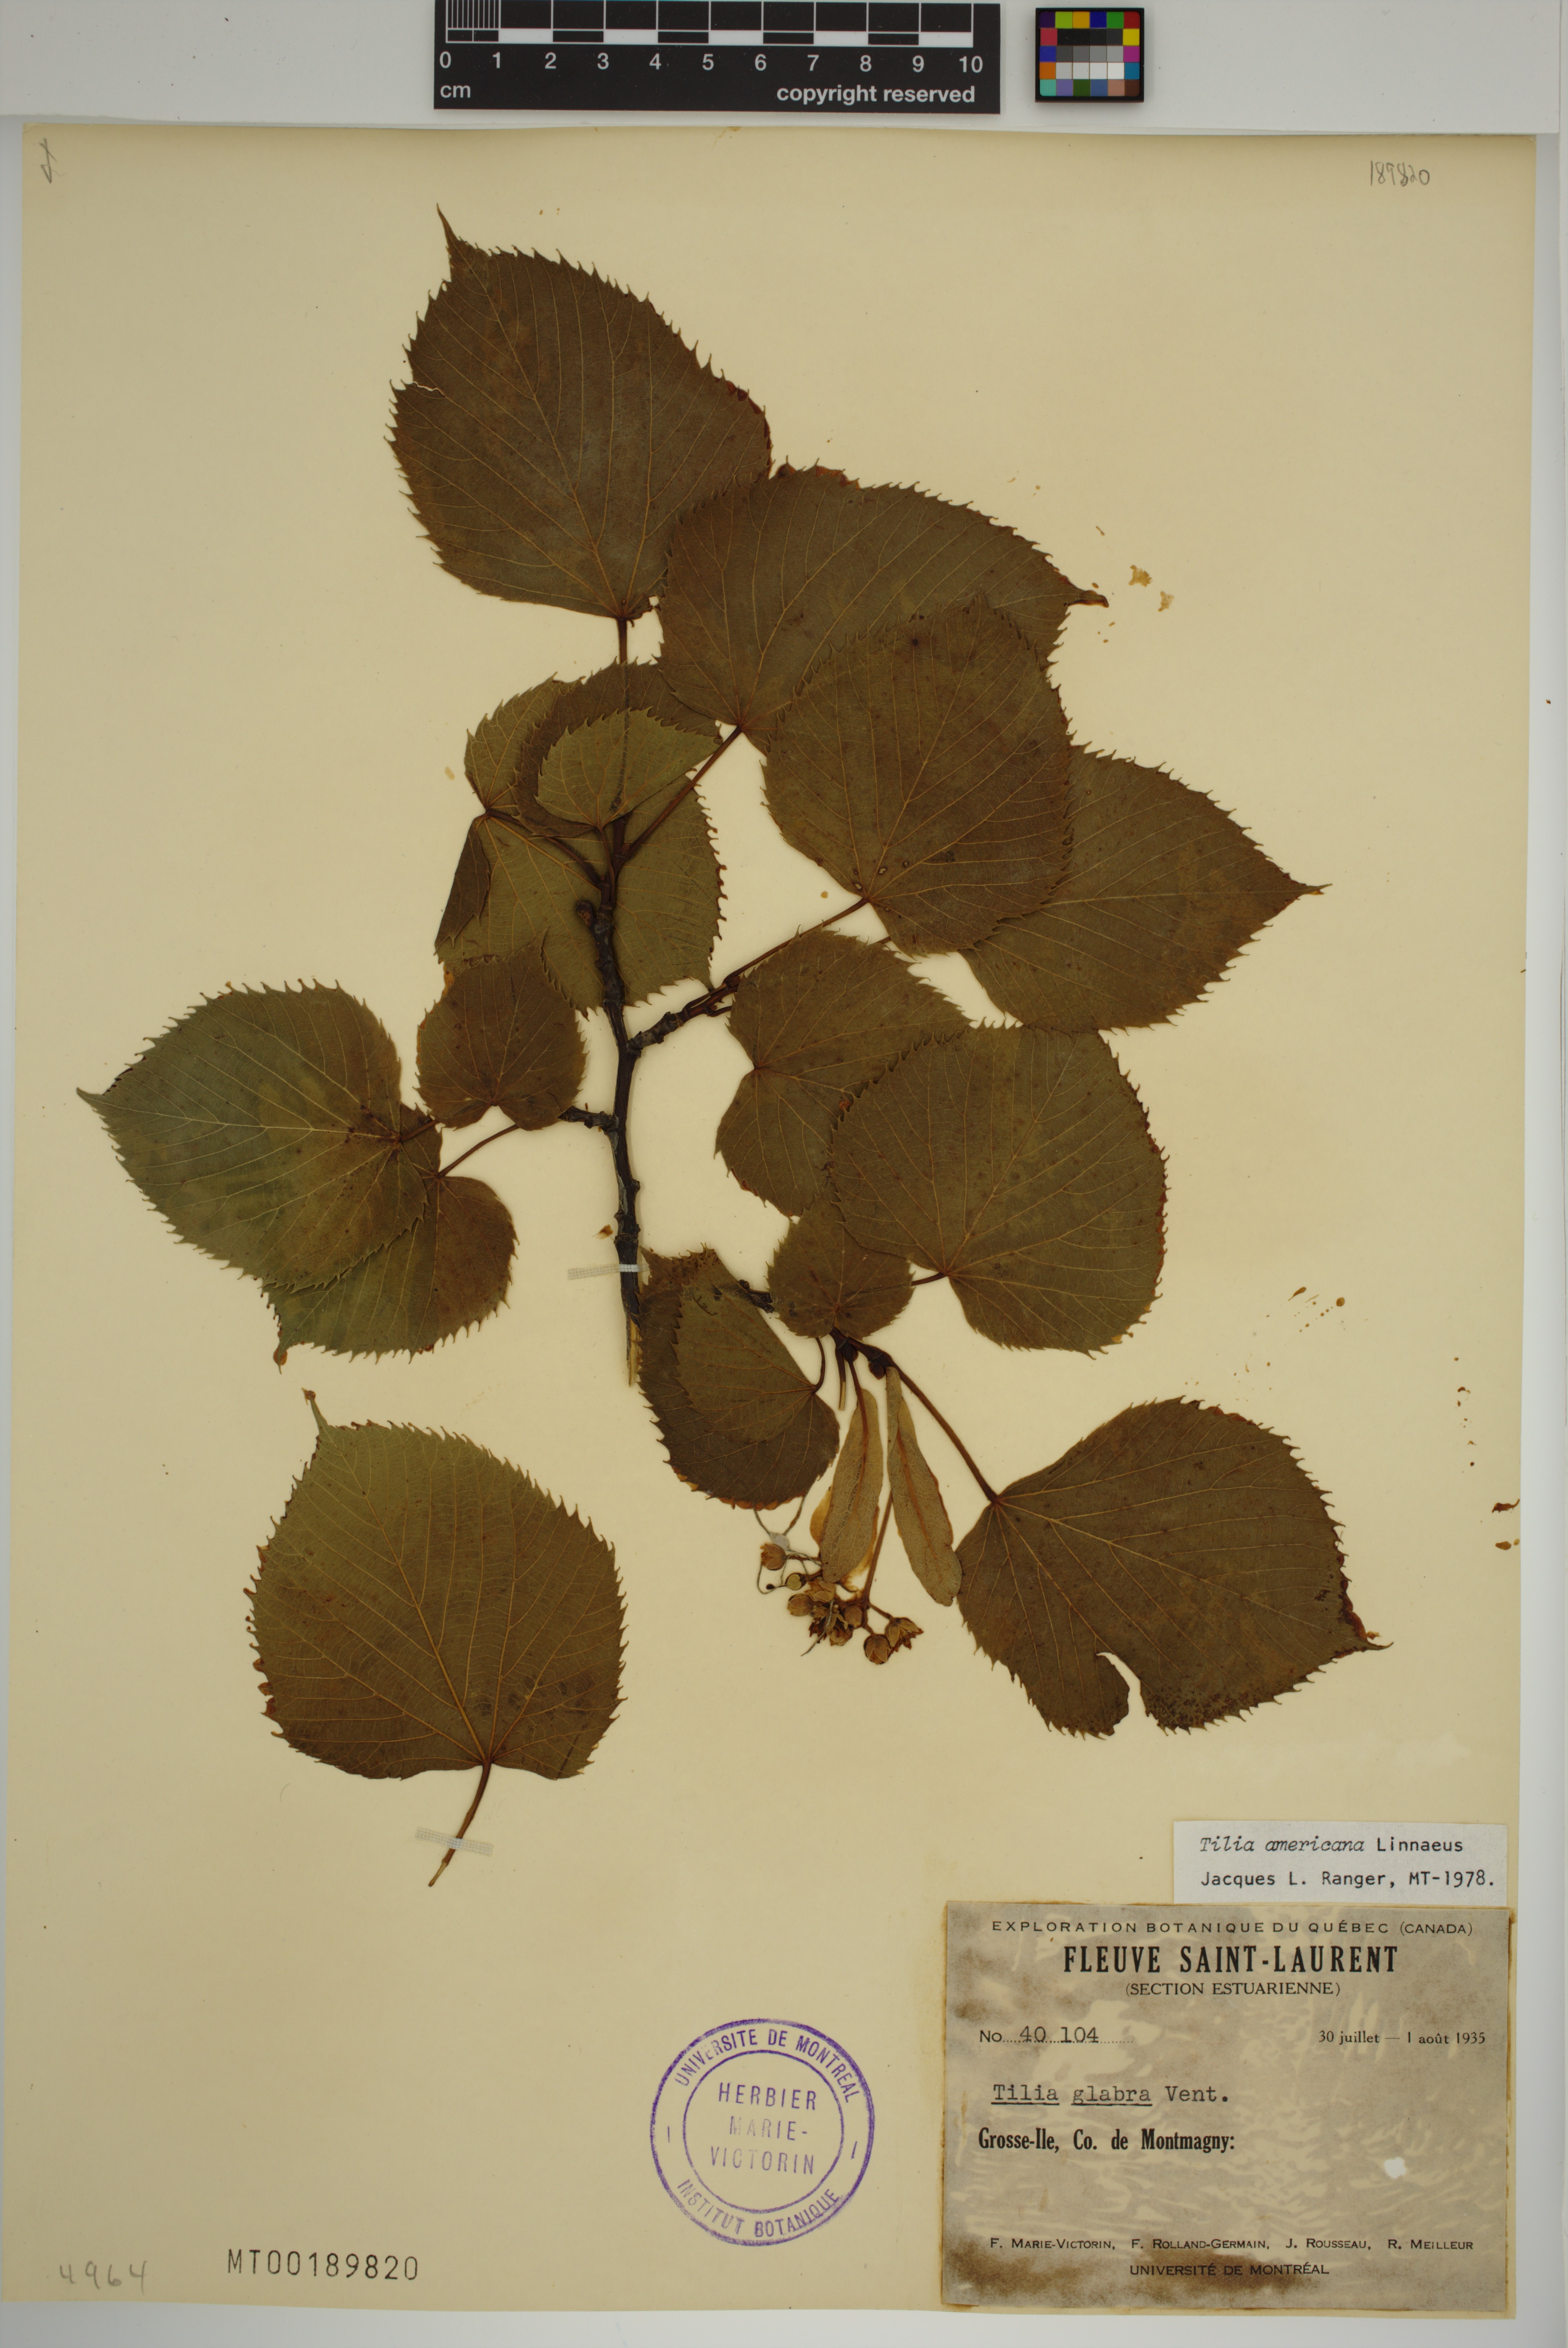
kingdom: Plantae
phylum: Tracheophyta
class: Magnoliopsida
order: Malvales
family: Malvaceae
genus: Tilia
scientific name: Tilia americana
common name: Basswood
